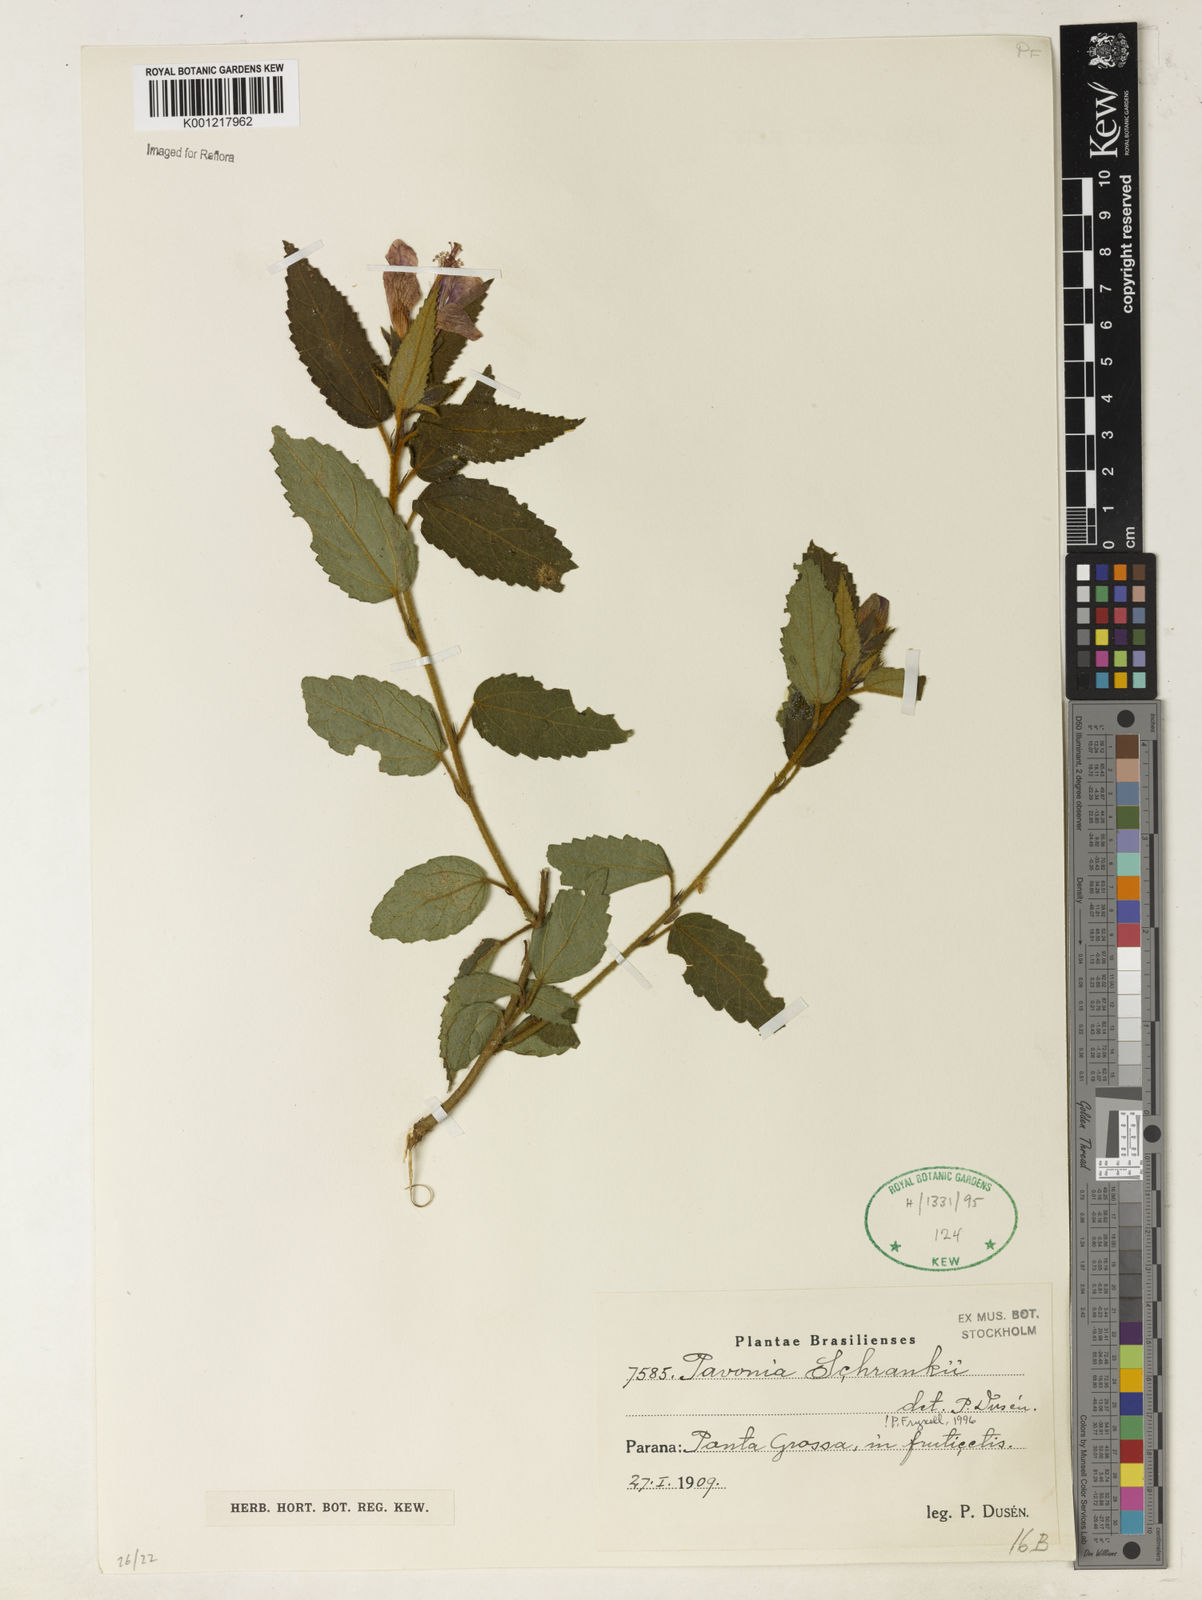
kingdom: Plantae
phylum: Tracheophyta
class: Magnoliopsida
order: Malvales
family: Malvaceae
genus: Pavonia
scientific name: Pavonia schrankii
